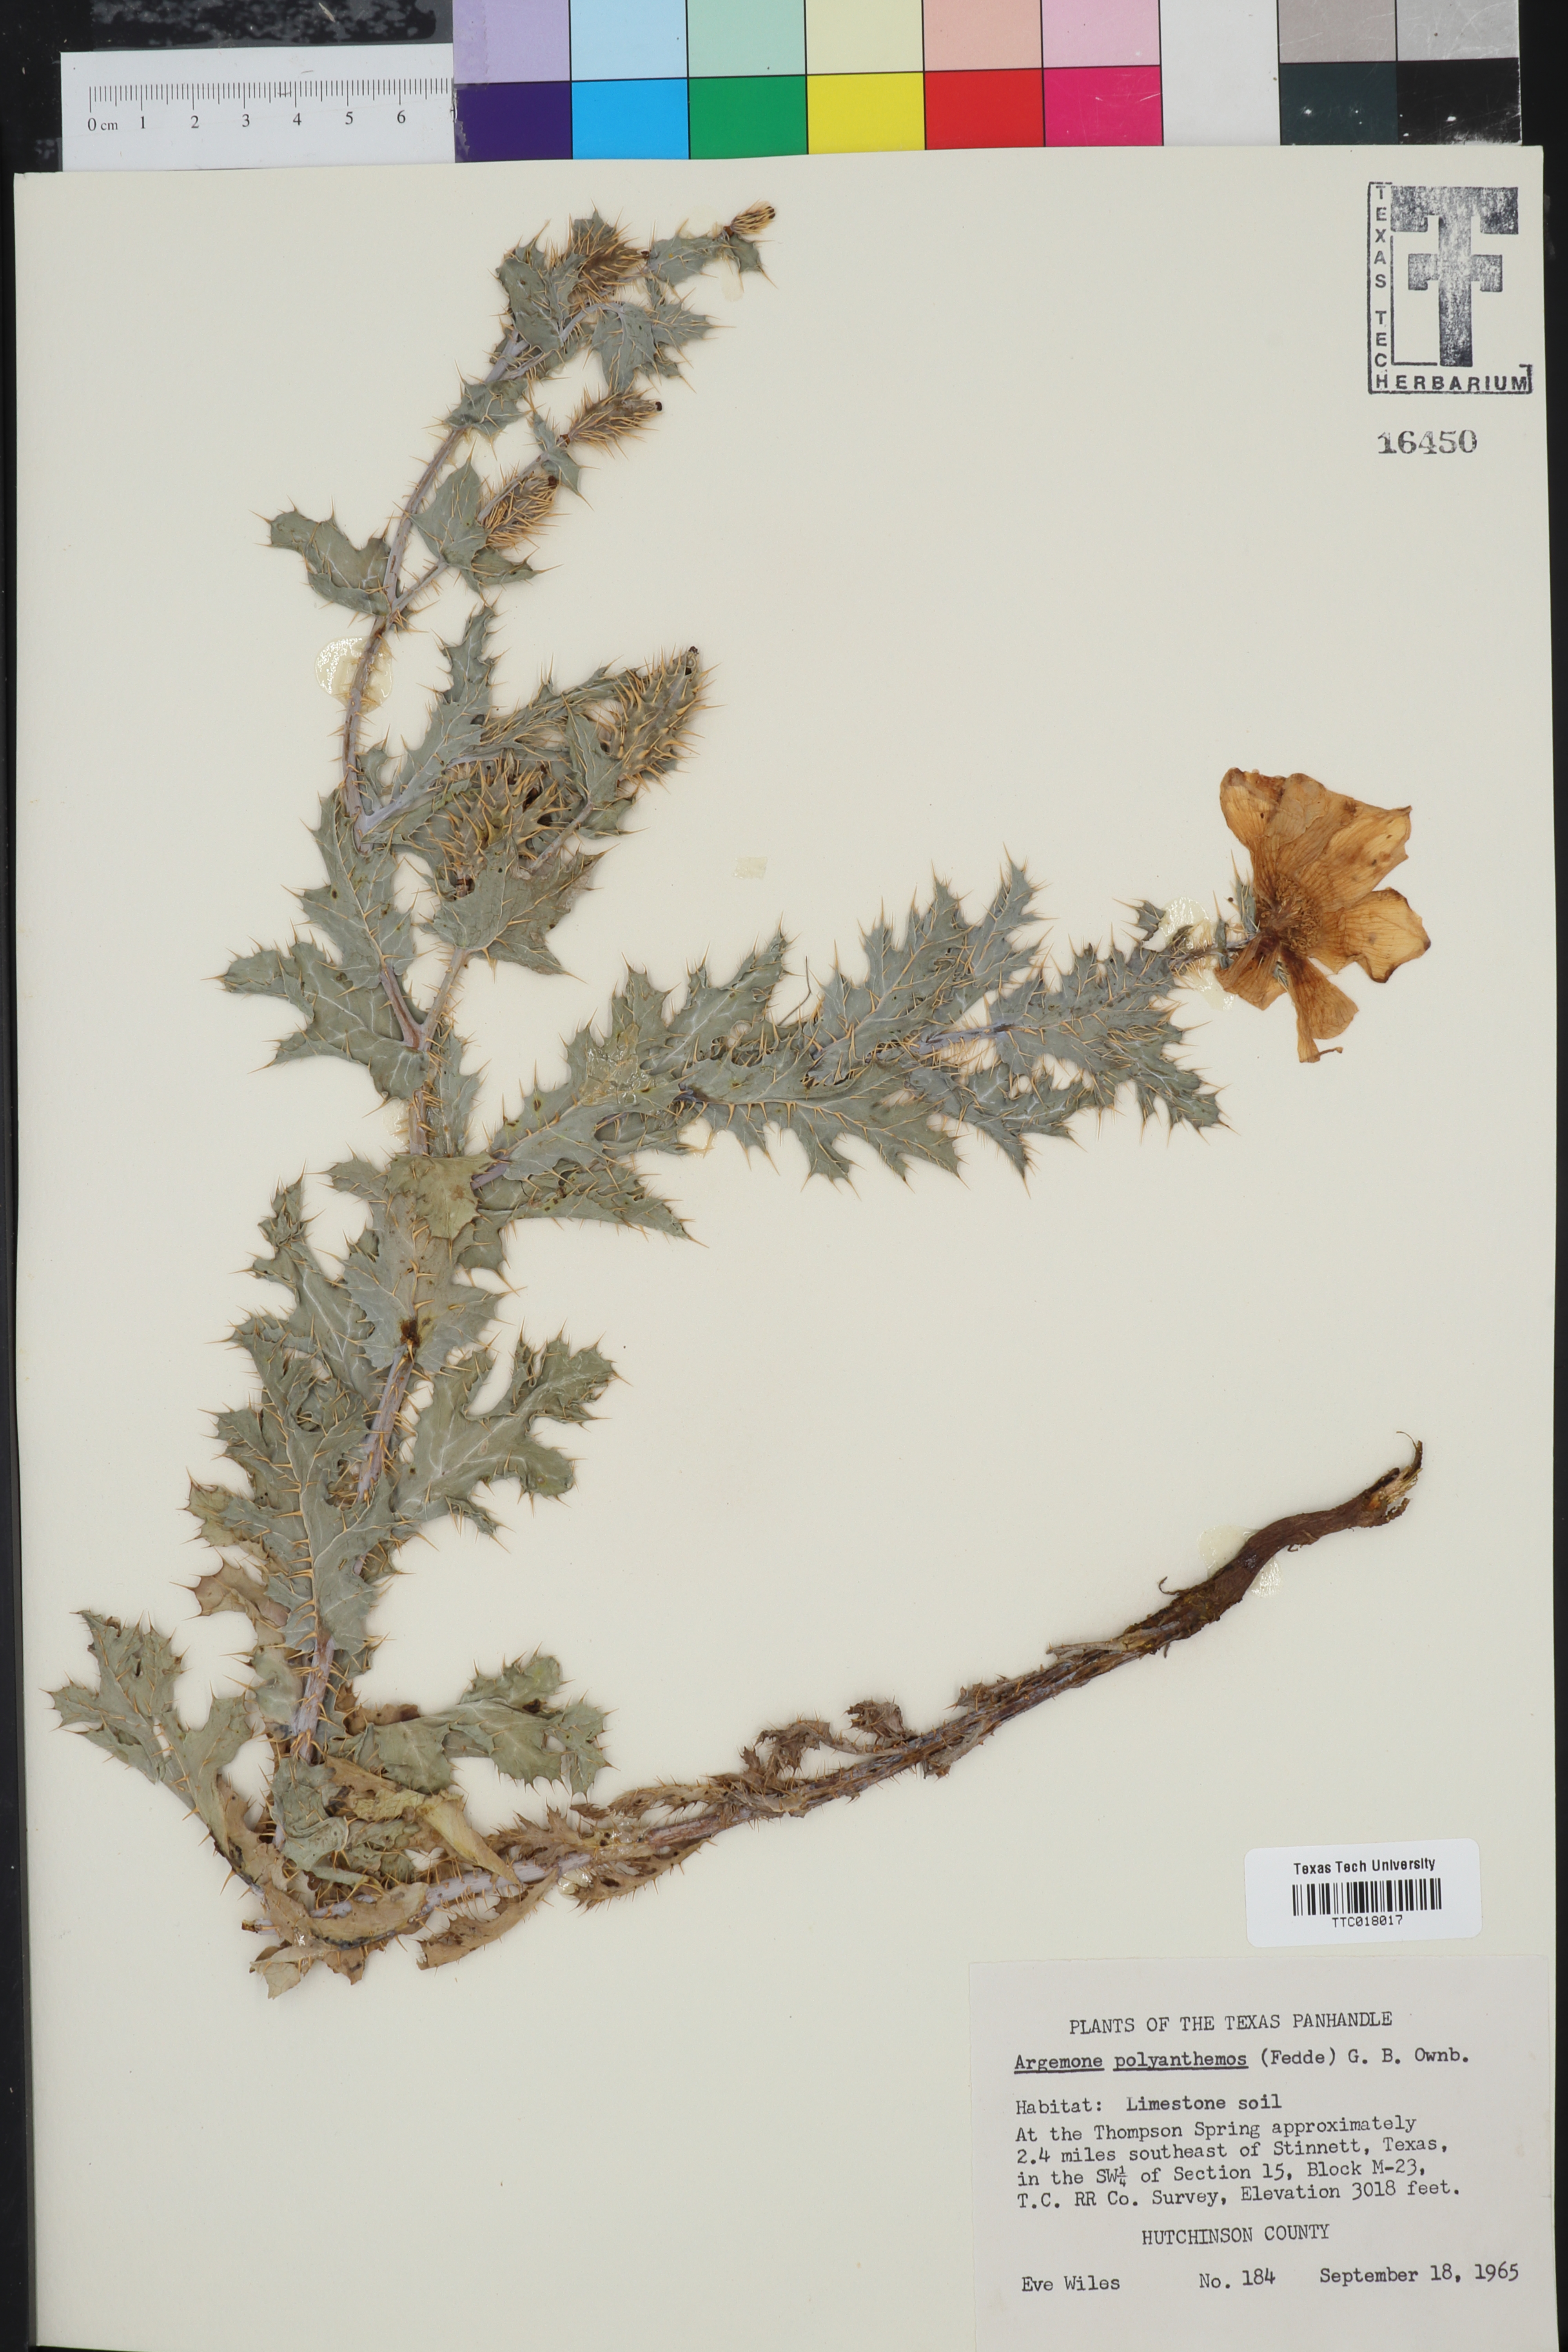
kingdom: Plantae
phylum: Tracheophyta
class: Magnoliopsida
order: Ranunculales
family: Papaveraceae
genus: Argemone
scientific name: Argemone polyanthemos
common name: Plains prickly-poppy
